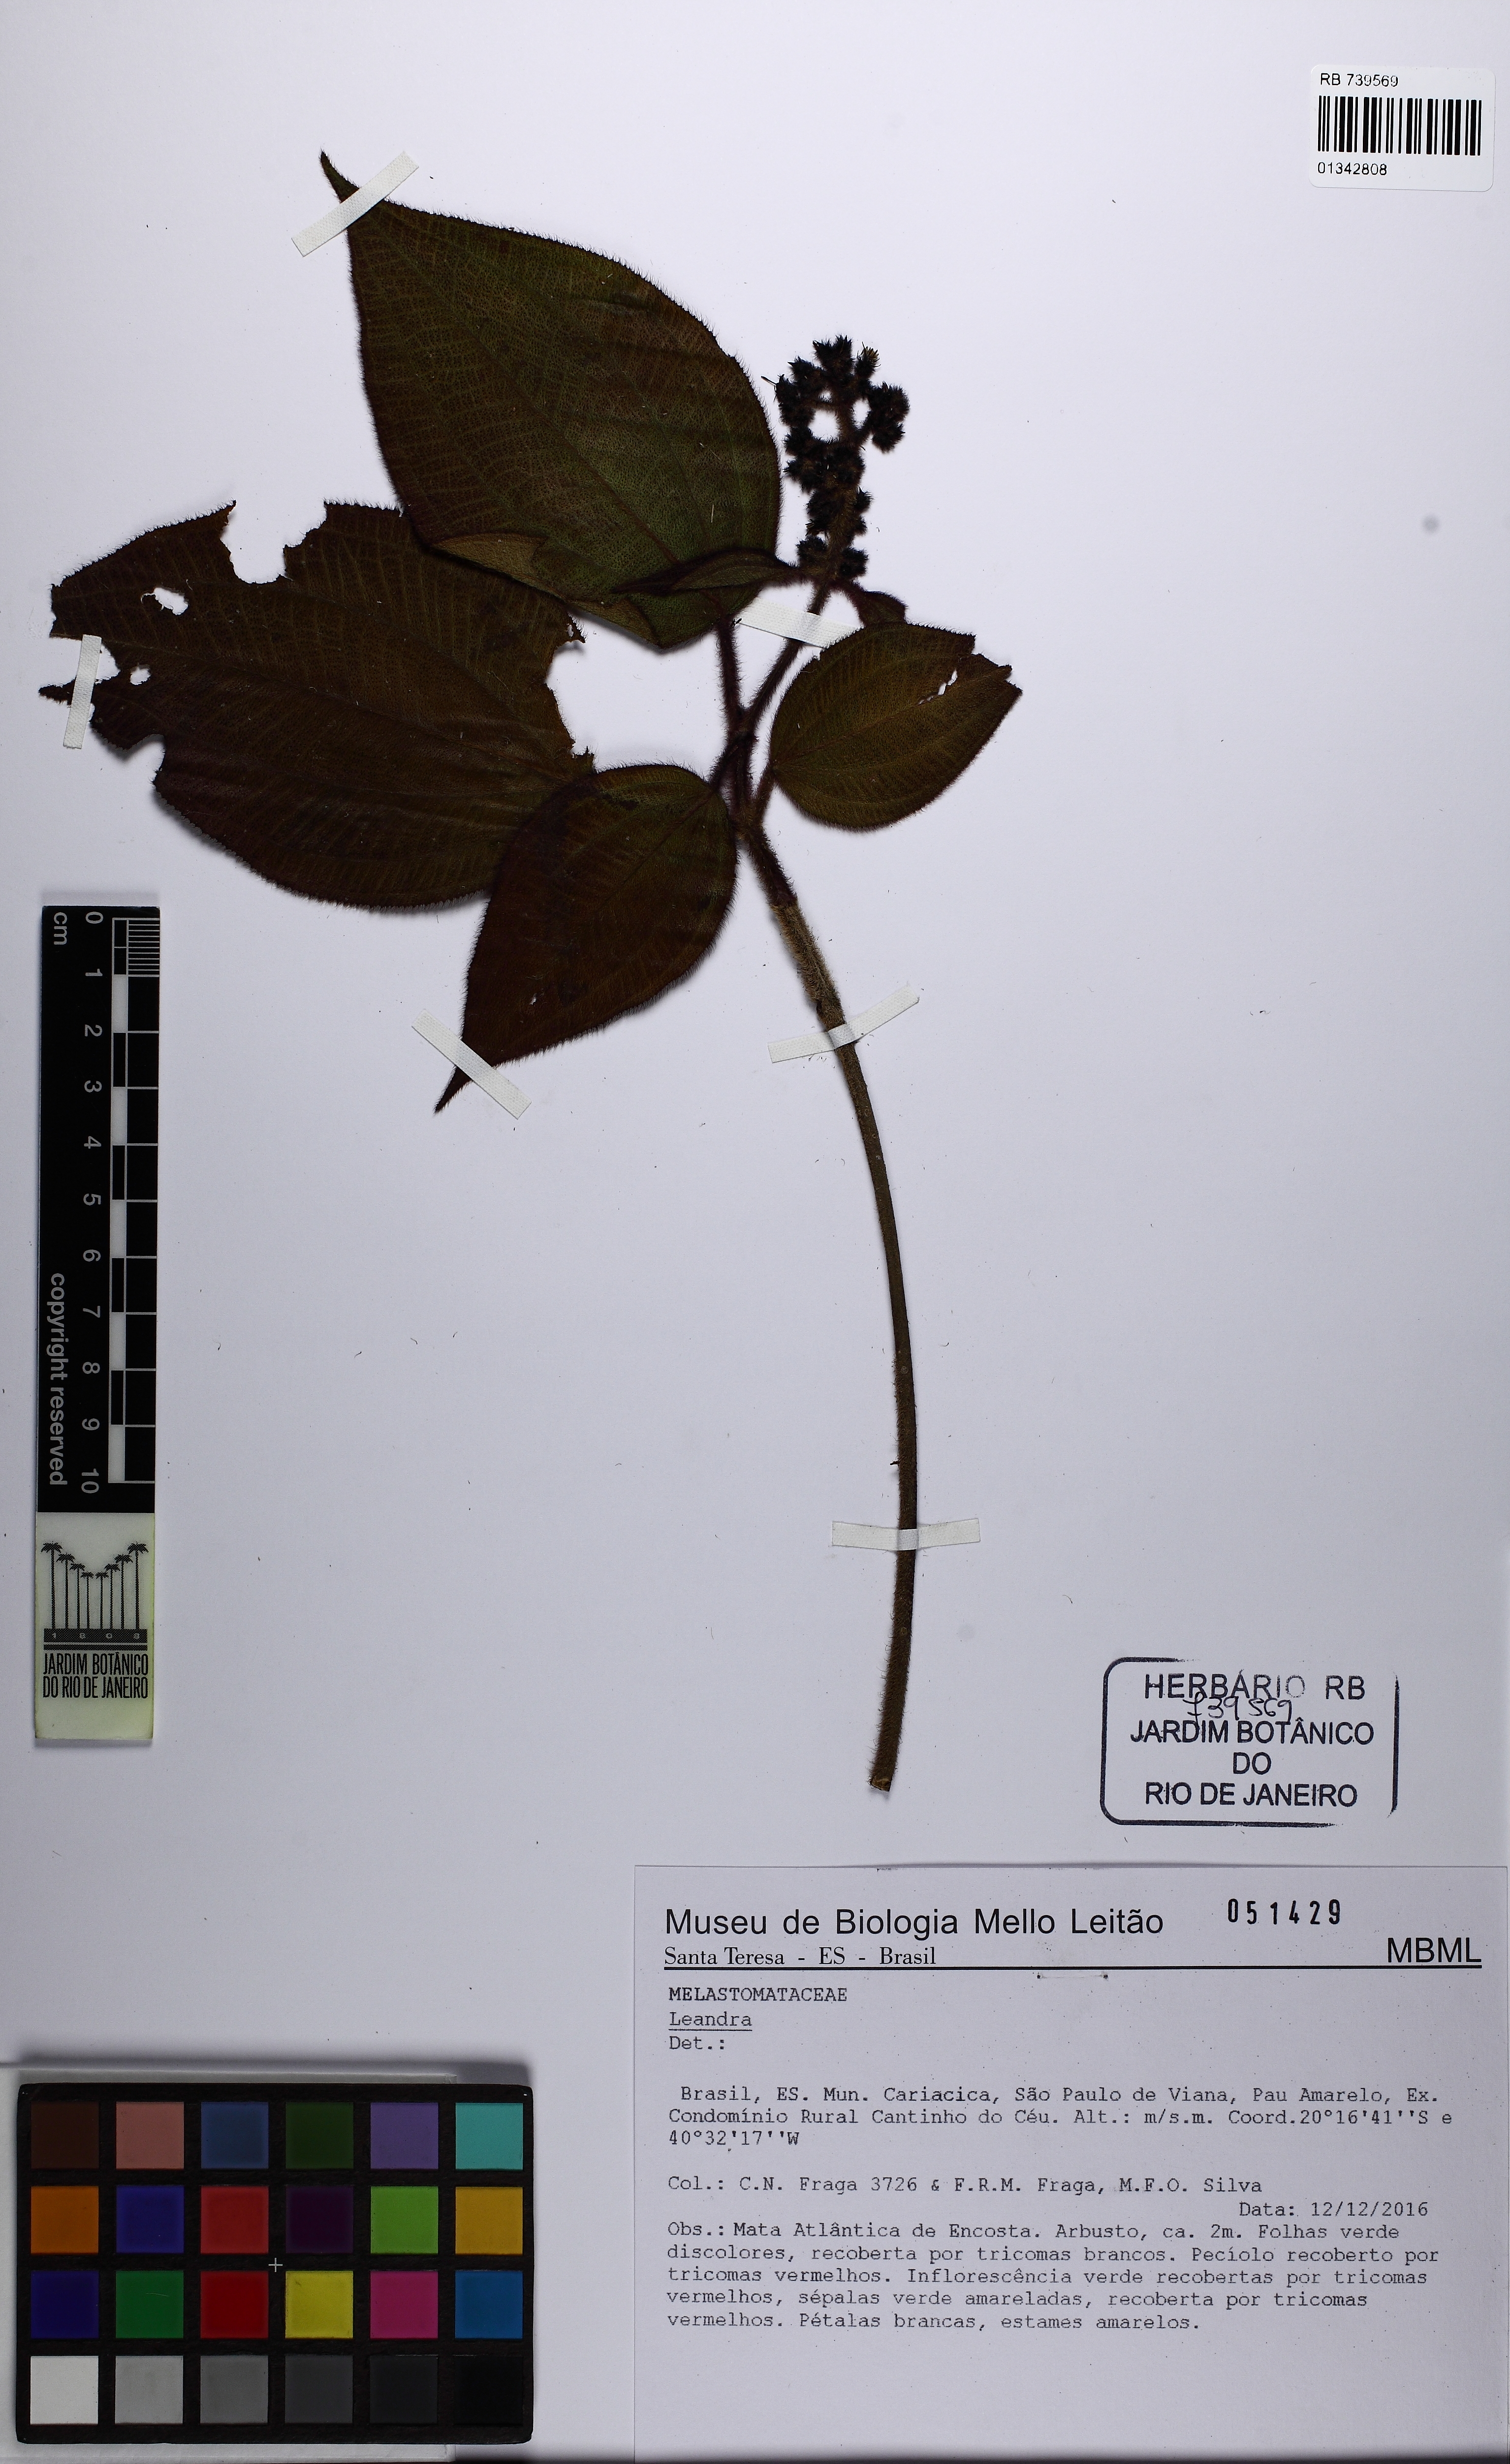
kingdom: Plantae
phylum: Tracheophyta
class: Magnoliopsida
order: Myrtales
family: Melastomataceae
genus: Miconia
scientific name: Miconia
